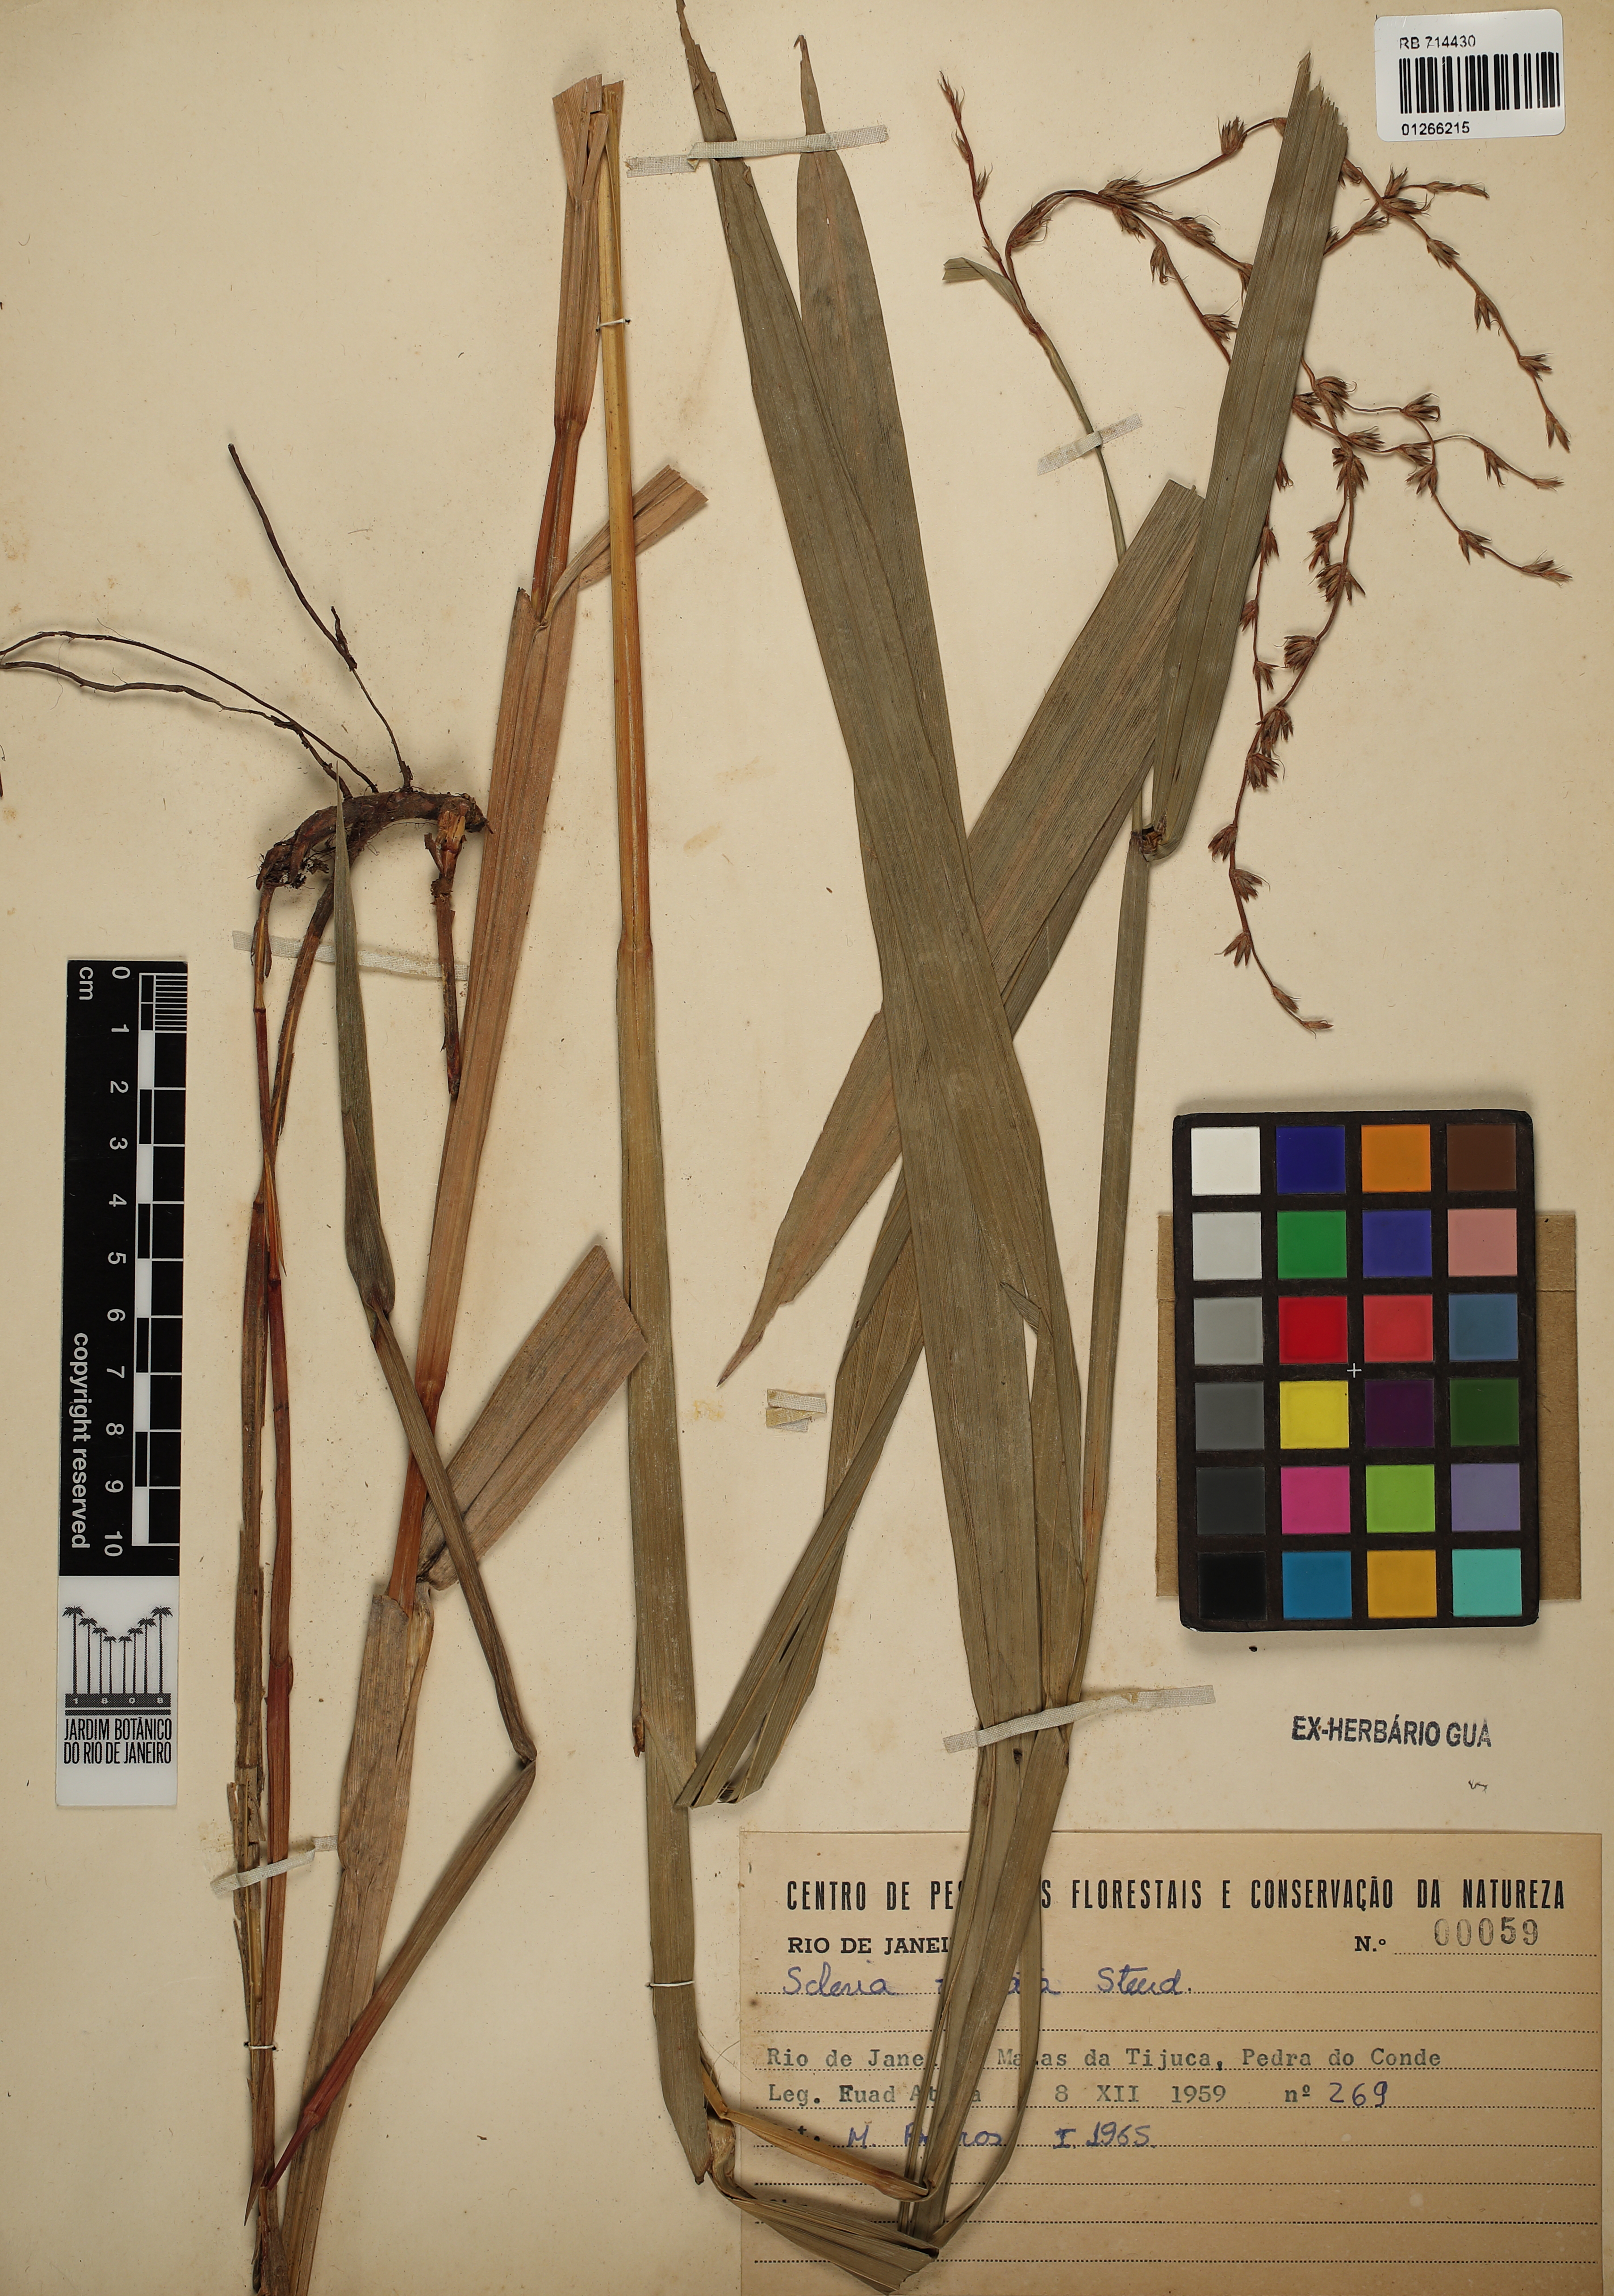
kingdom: Plantae
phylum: Tracheophyta
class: Liliopsida
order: Poales
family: Cyperaceae
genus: Scleria
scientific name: Scleria virgata
